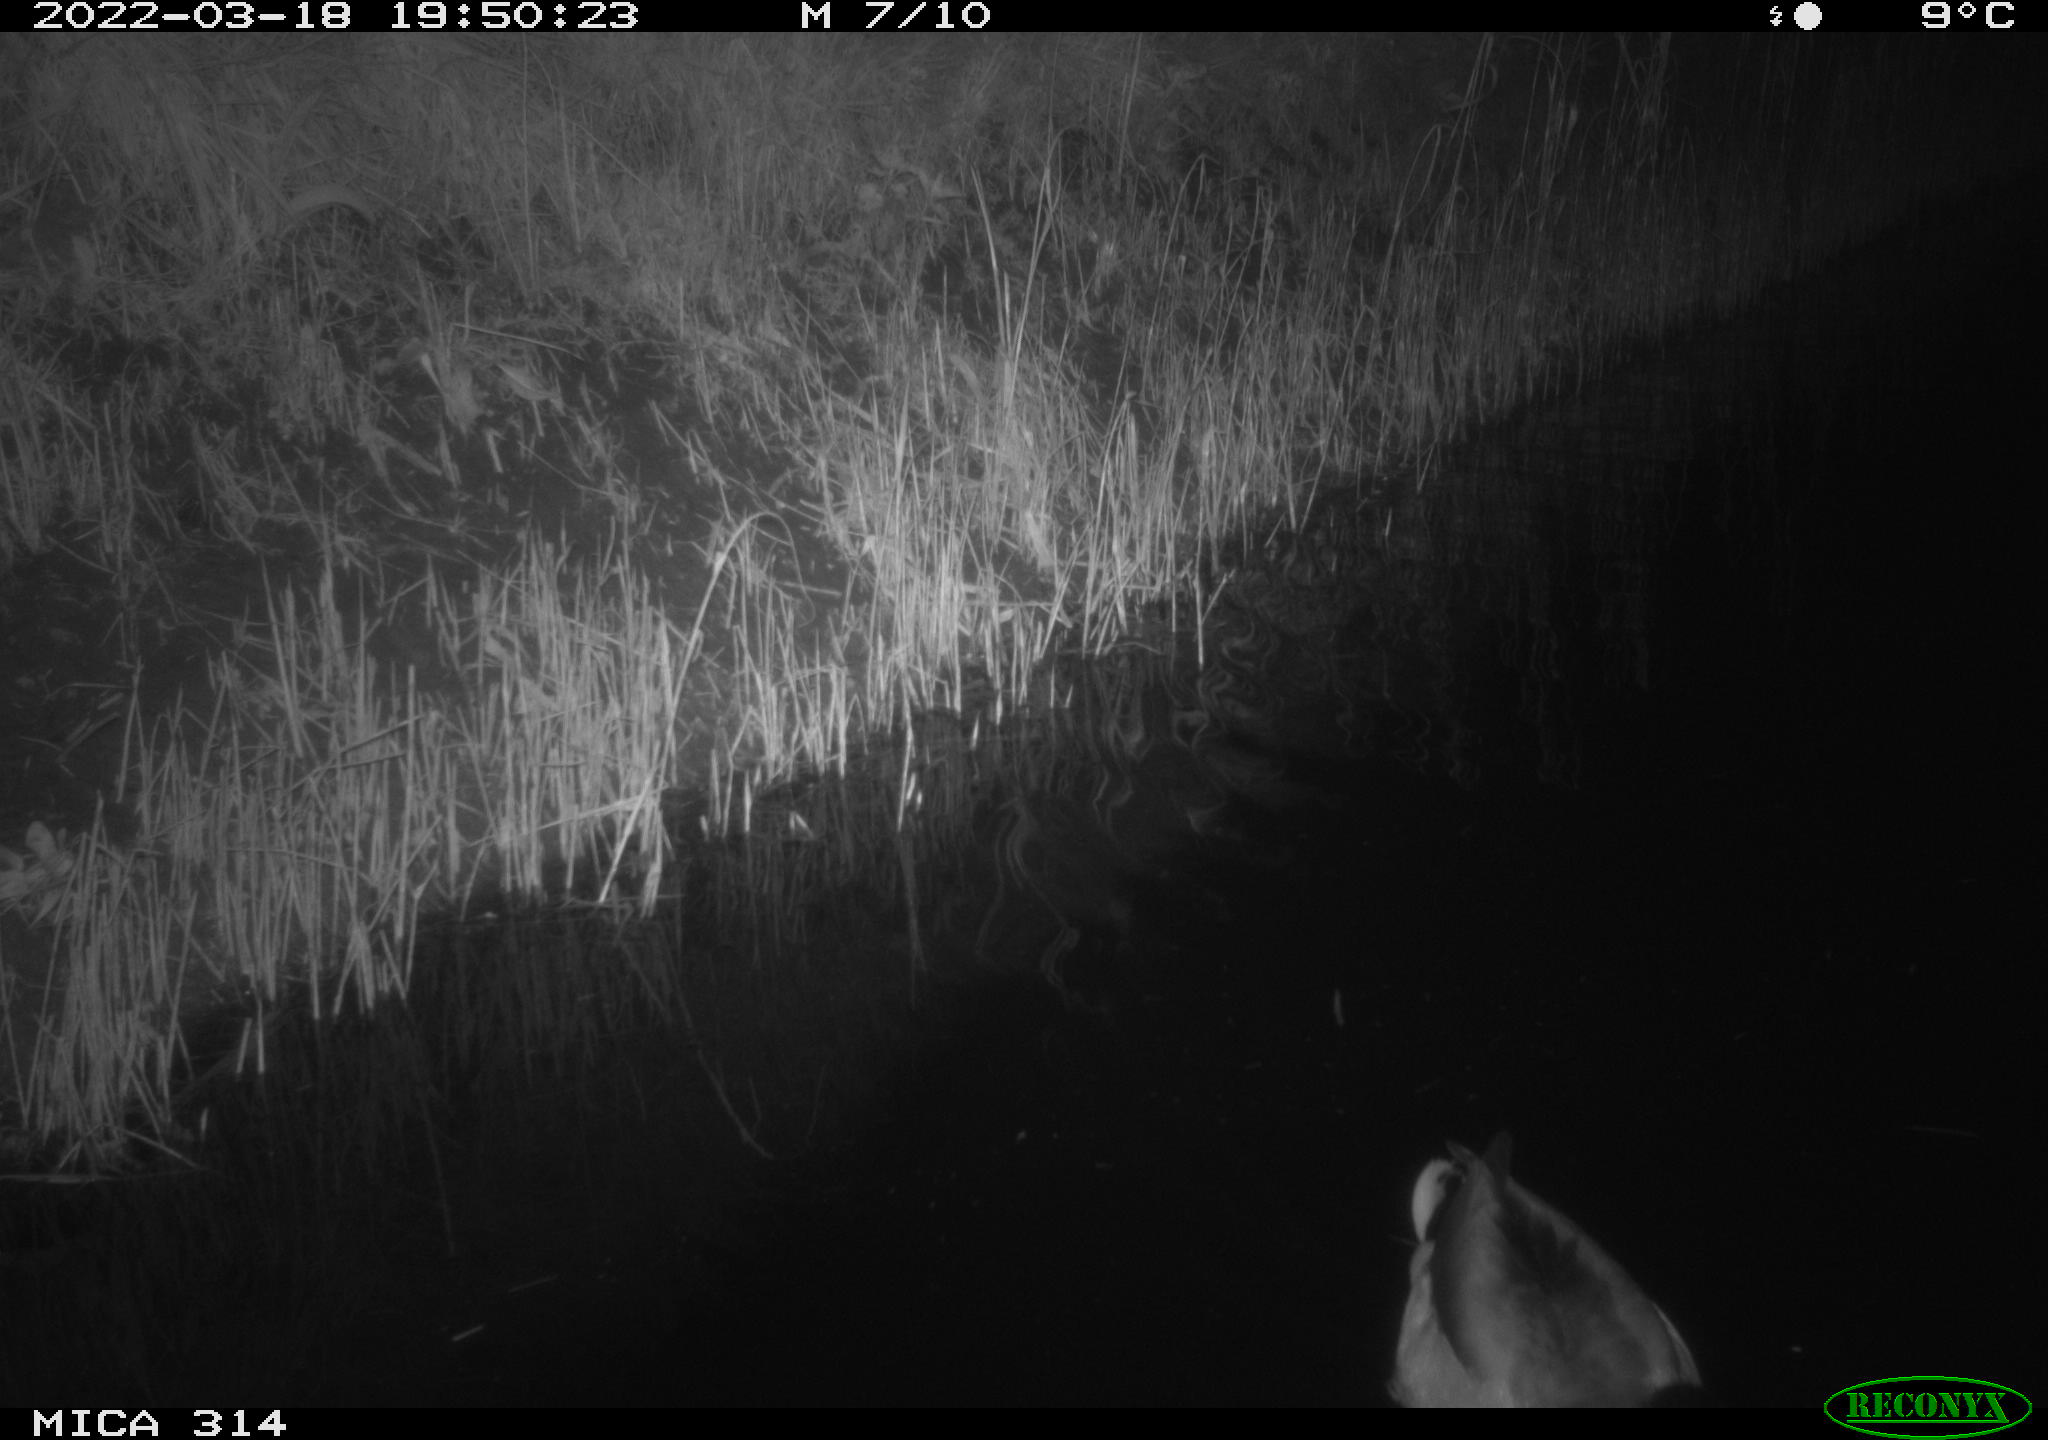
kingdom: Animalia
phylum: Chordata
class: Aves
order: Anseriformes
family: Anatidae
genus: Anas
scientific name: Anas platyrhynchos
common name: Mallard
